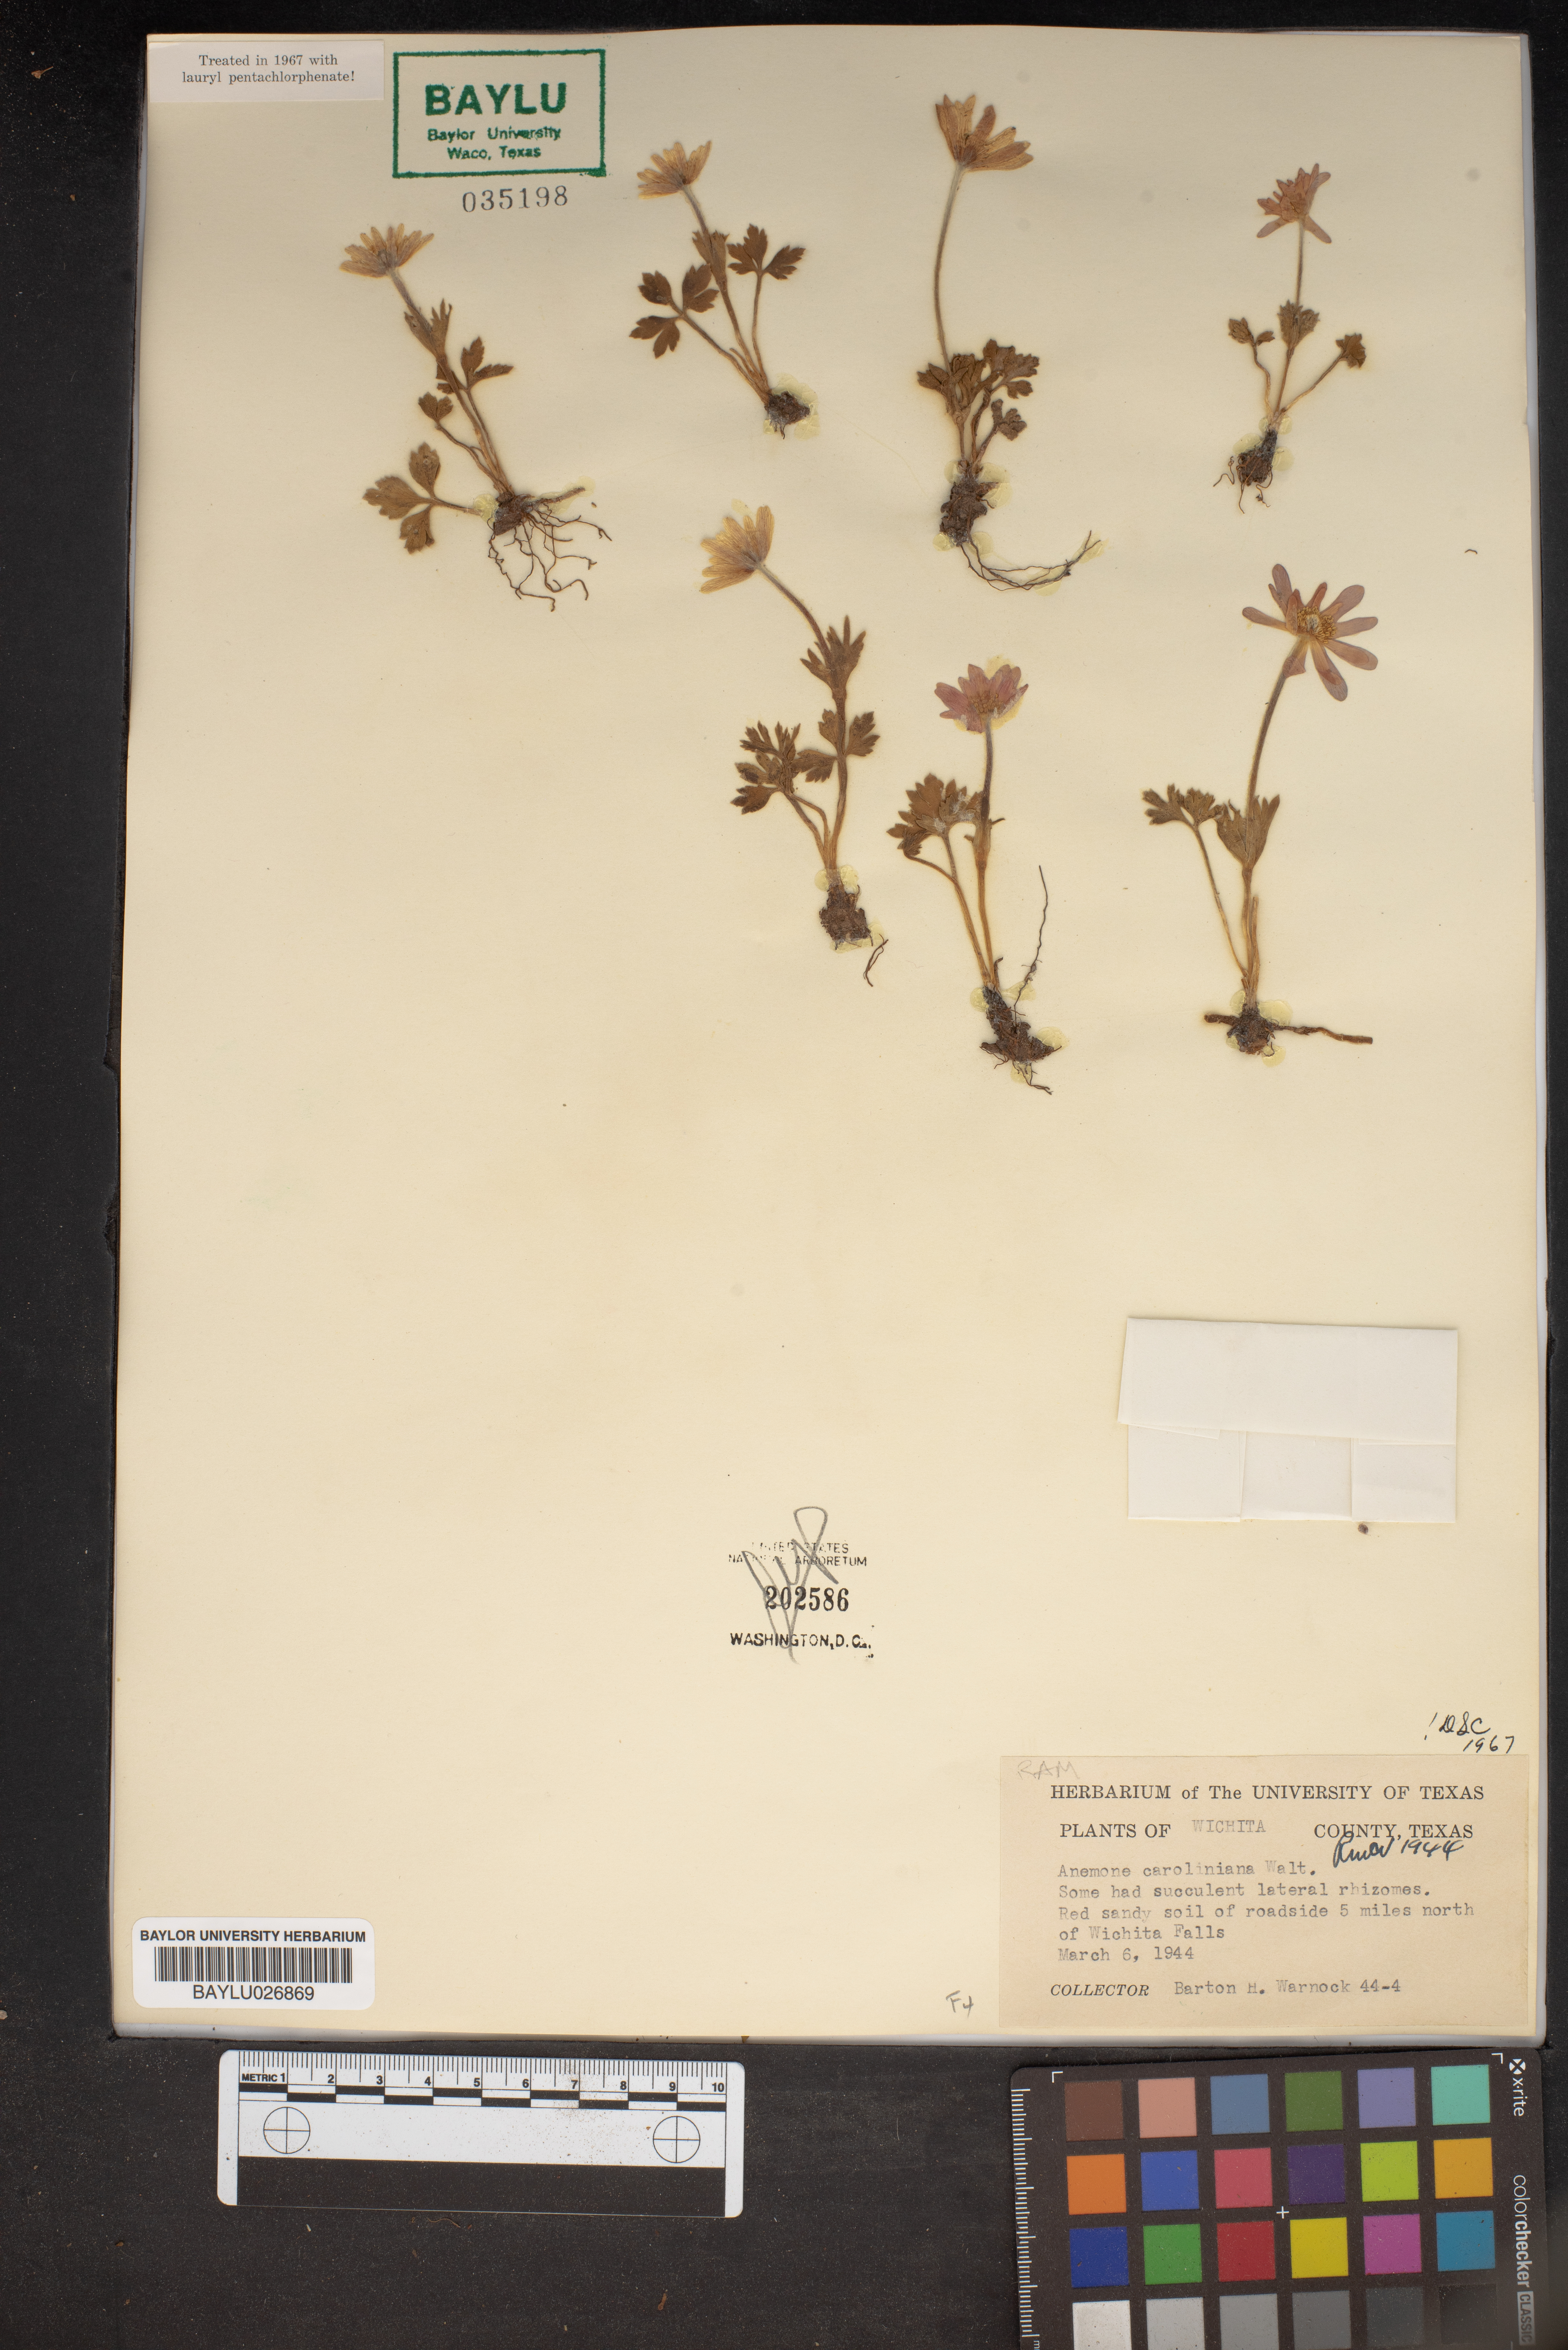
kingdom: Plantae
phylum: Tracheophyta
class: Magnoliopsida
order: Ranunculales
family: Ranunculaceae
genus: Anemone
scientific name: Anemone caroliniana
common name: Carolina anemone
